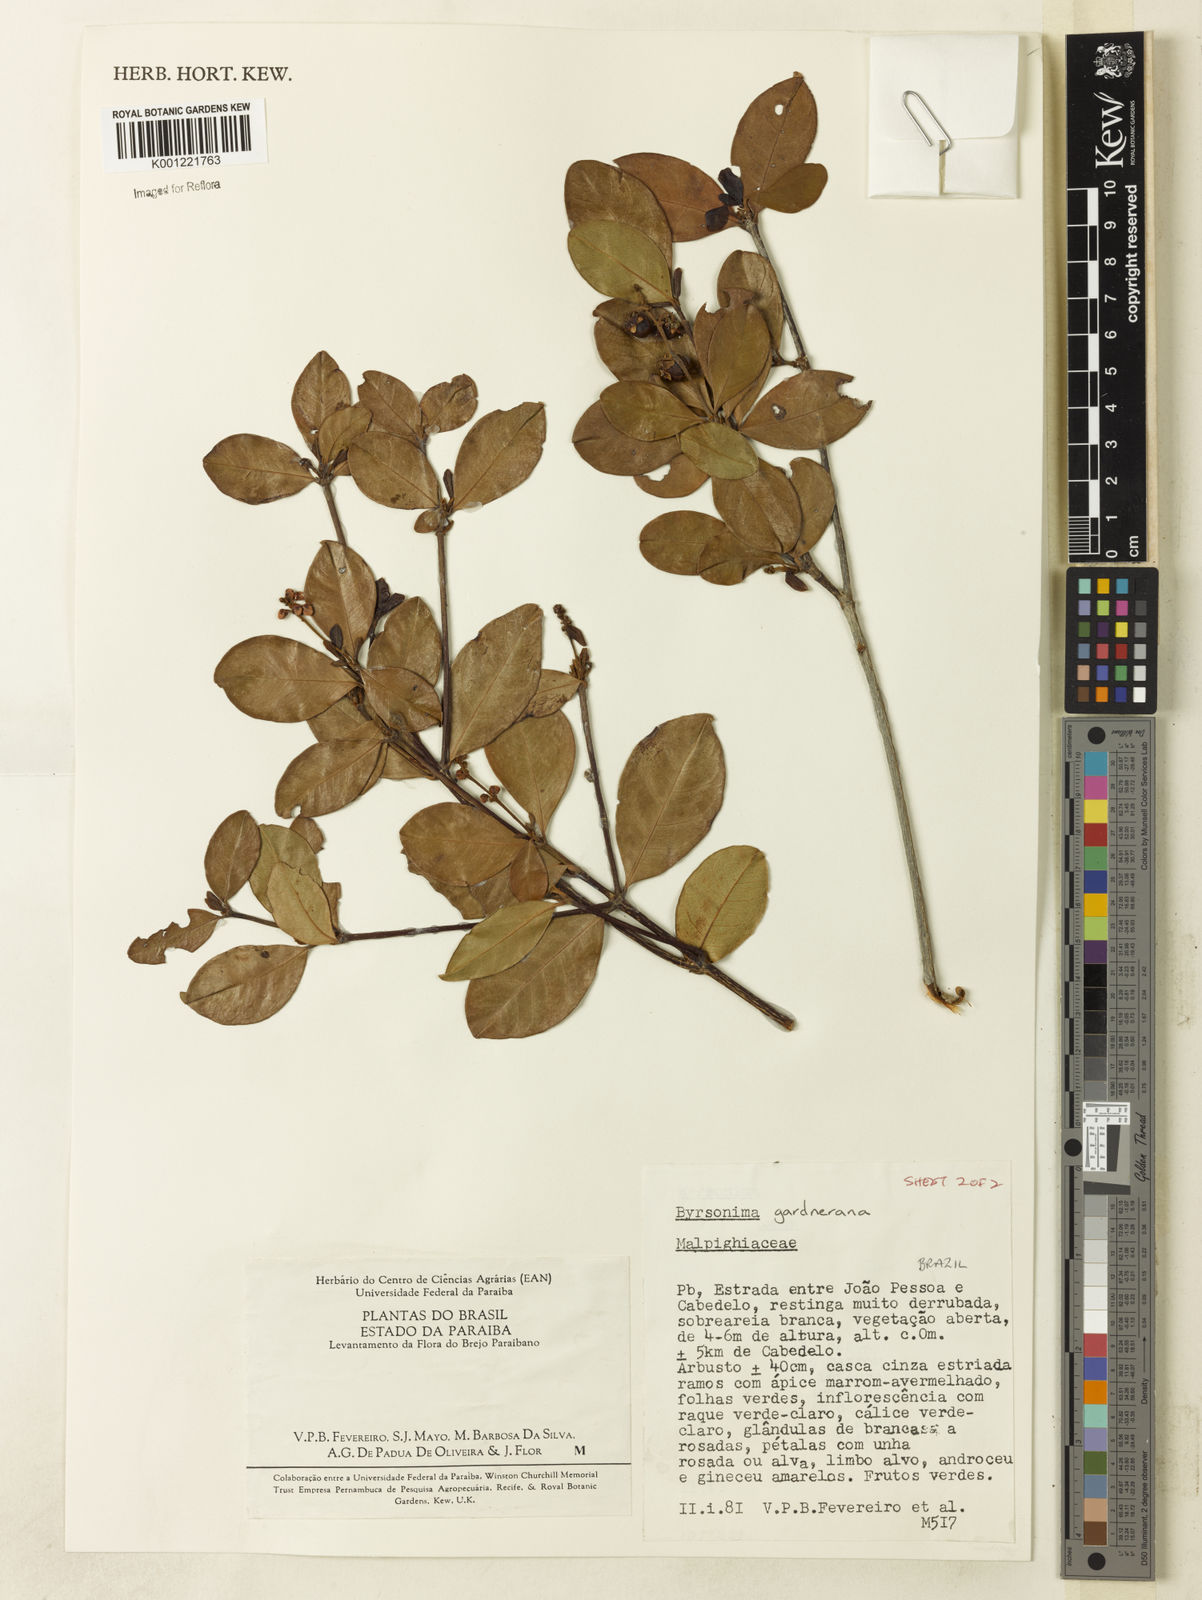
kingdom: Plantae
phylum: Tracheophyta
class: Magnoliopsida
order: Malpighiales
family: Malpighiaceae
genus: Byrsonima
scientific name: Byrsonima gardneriana
